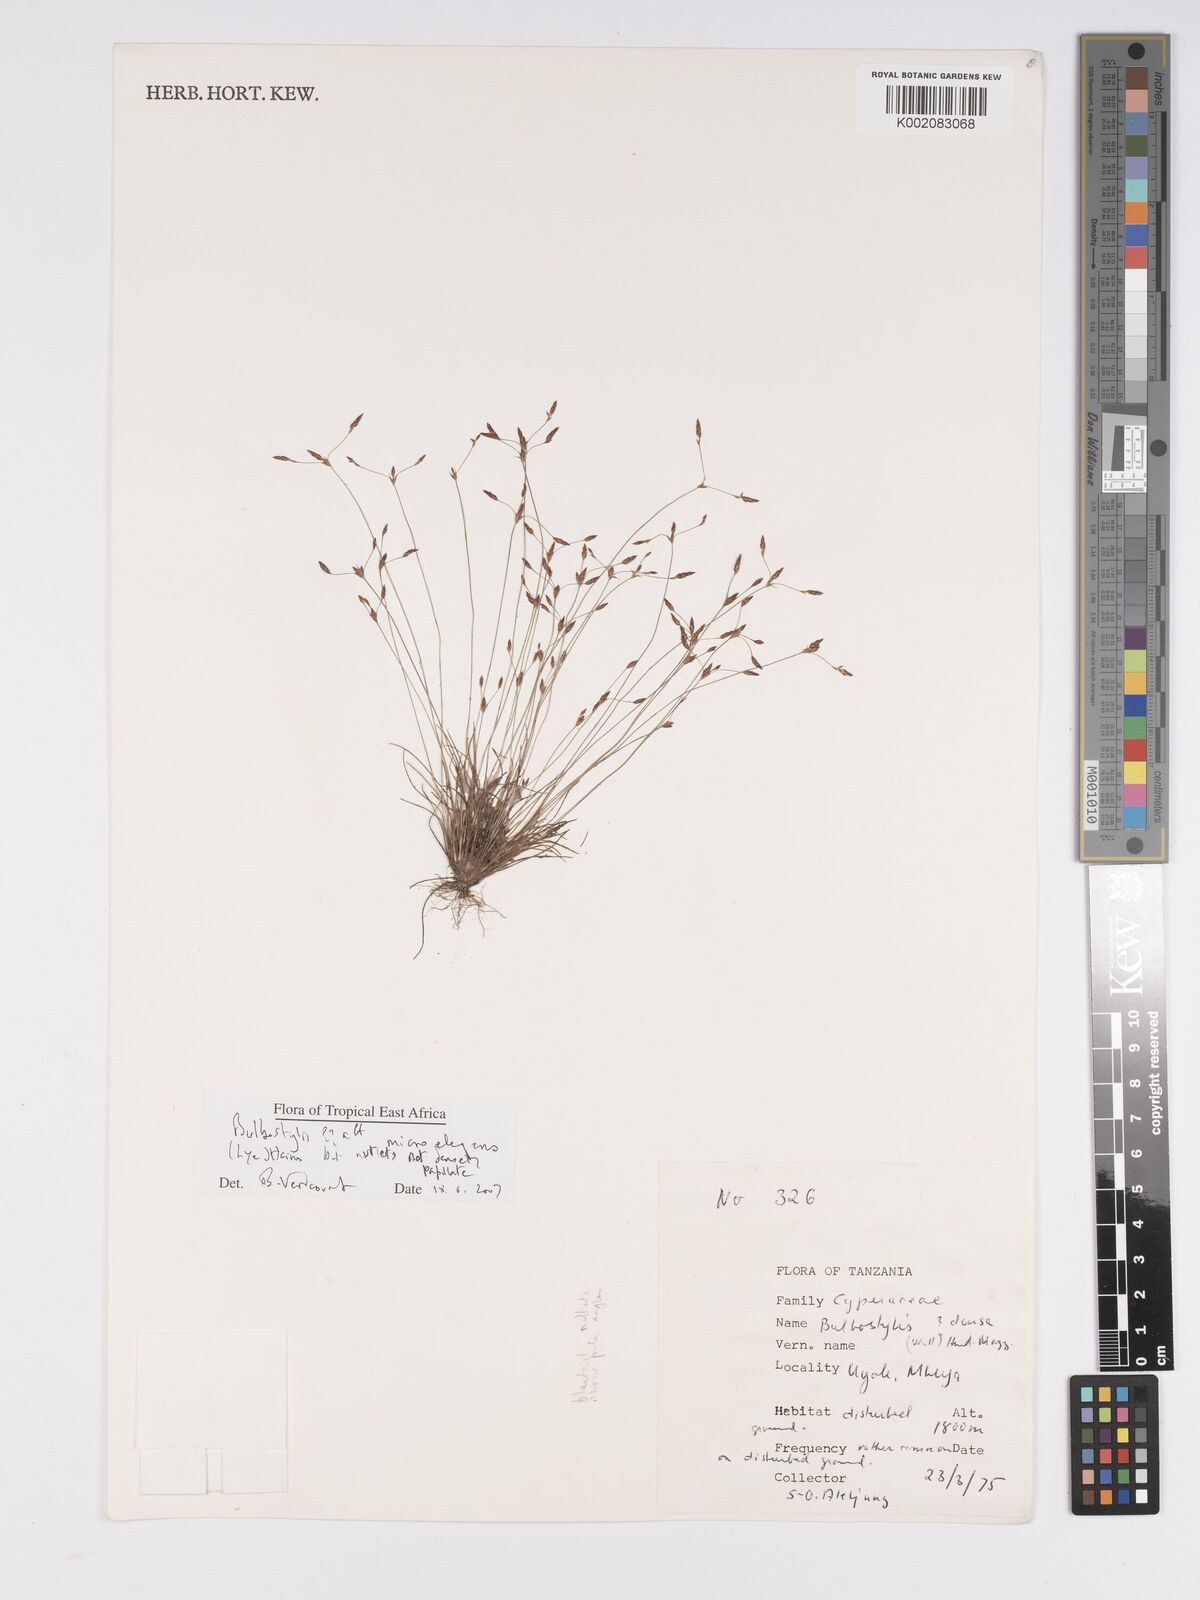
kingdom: Plantae
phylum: Tracheophyta
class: Liliopsida
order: Poales
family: Cyperaceae
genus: Bulbostylis
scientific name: Bulbostylis microelegans
